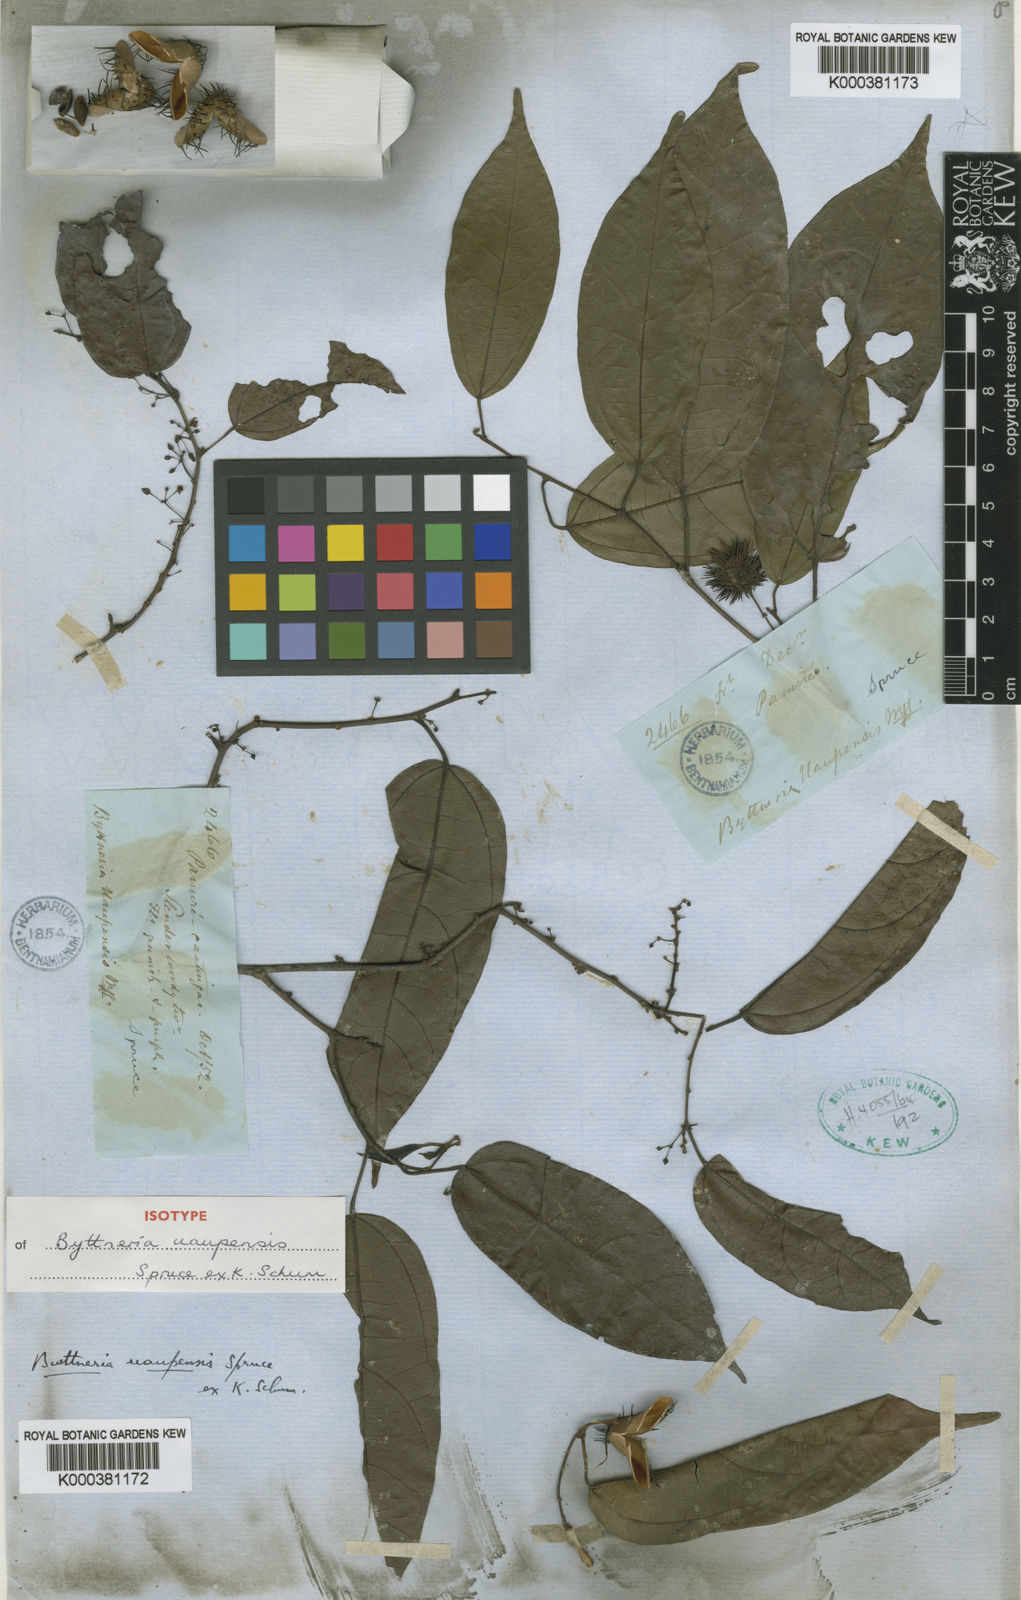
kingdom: Plantae
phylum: Tracheophyta
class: Magnoliopsida
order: Malvales
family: Malvaceae
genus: Byttneria
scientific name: Byttneria uaupensis
